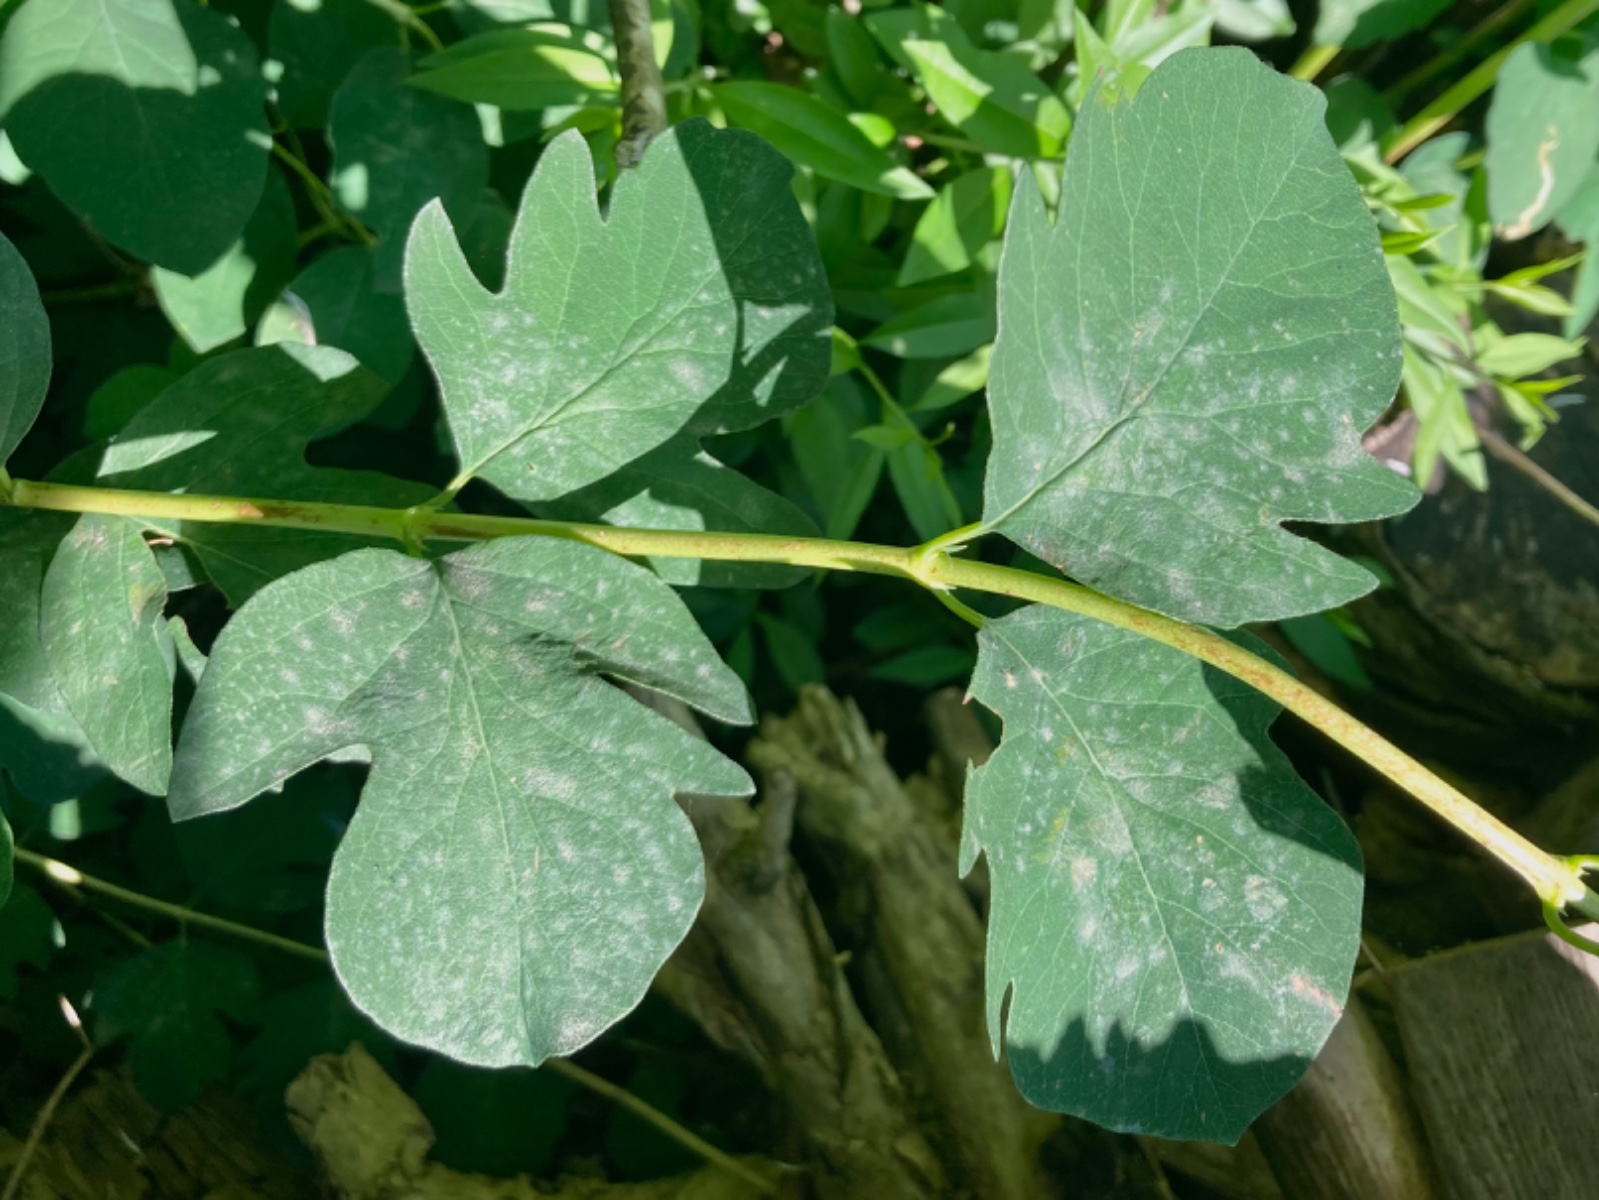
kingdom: Fungi
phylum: Ascomycota
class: Leotiomycetes
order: Helotiales
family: Erysiphaceae
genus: Erysiphe
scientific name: Erysiphe symphoricarpi
